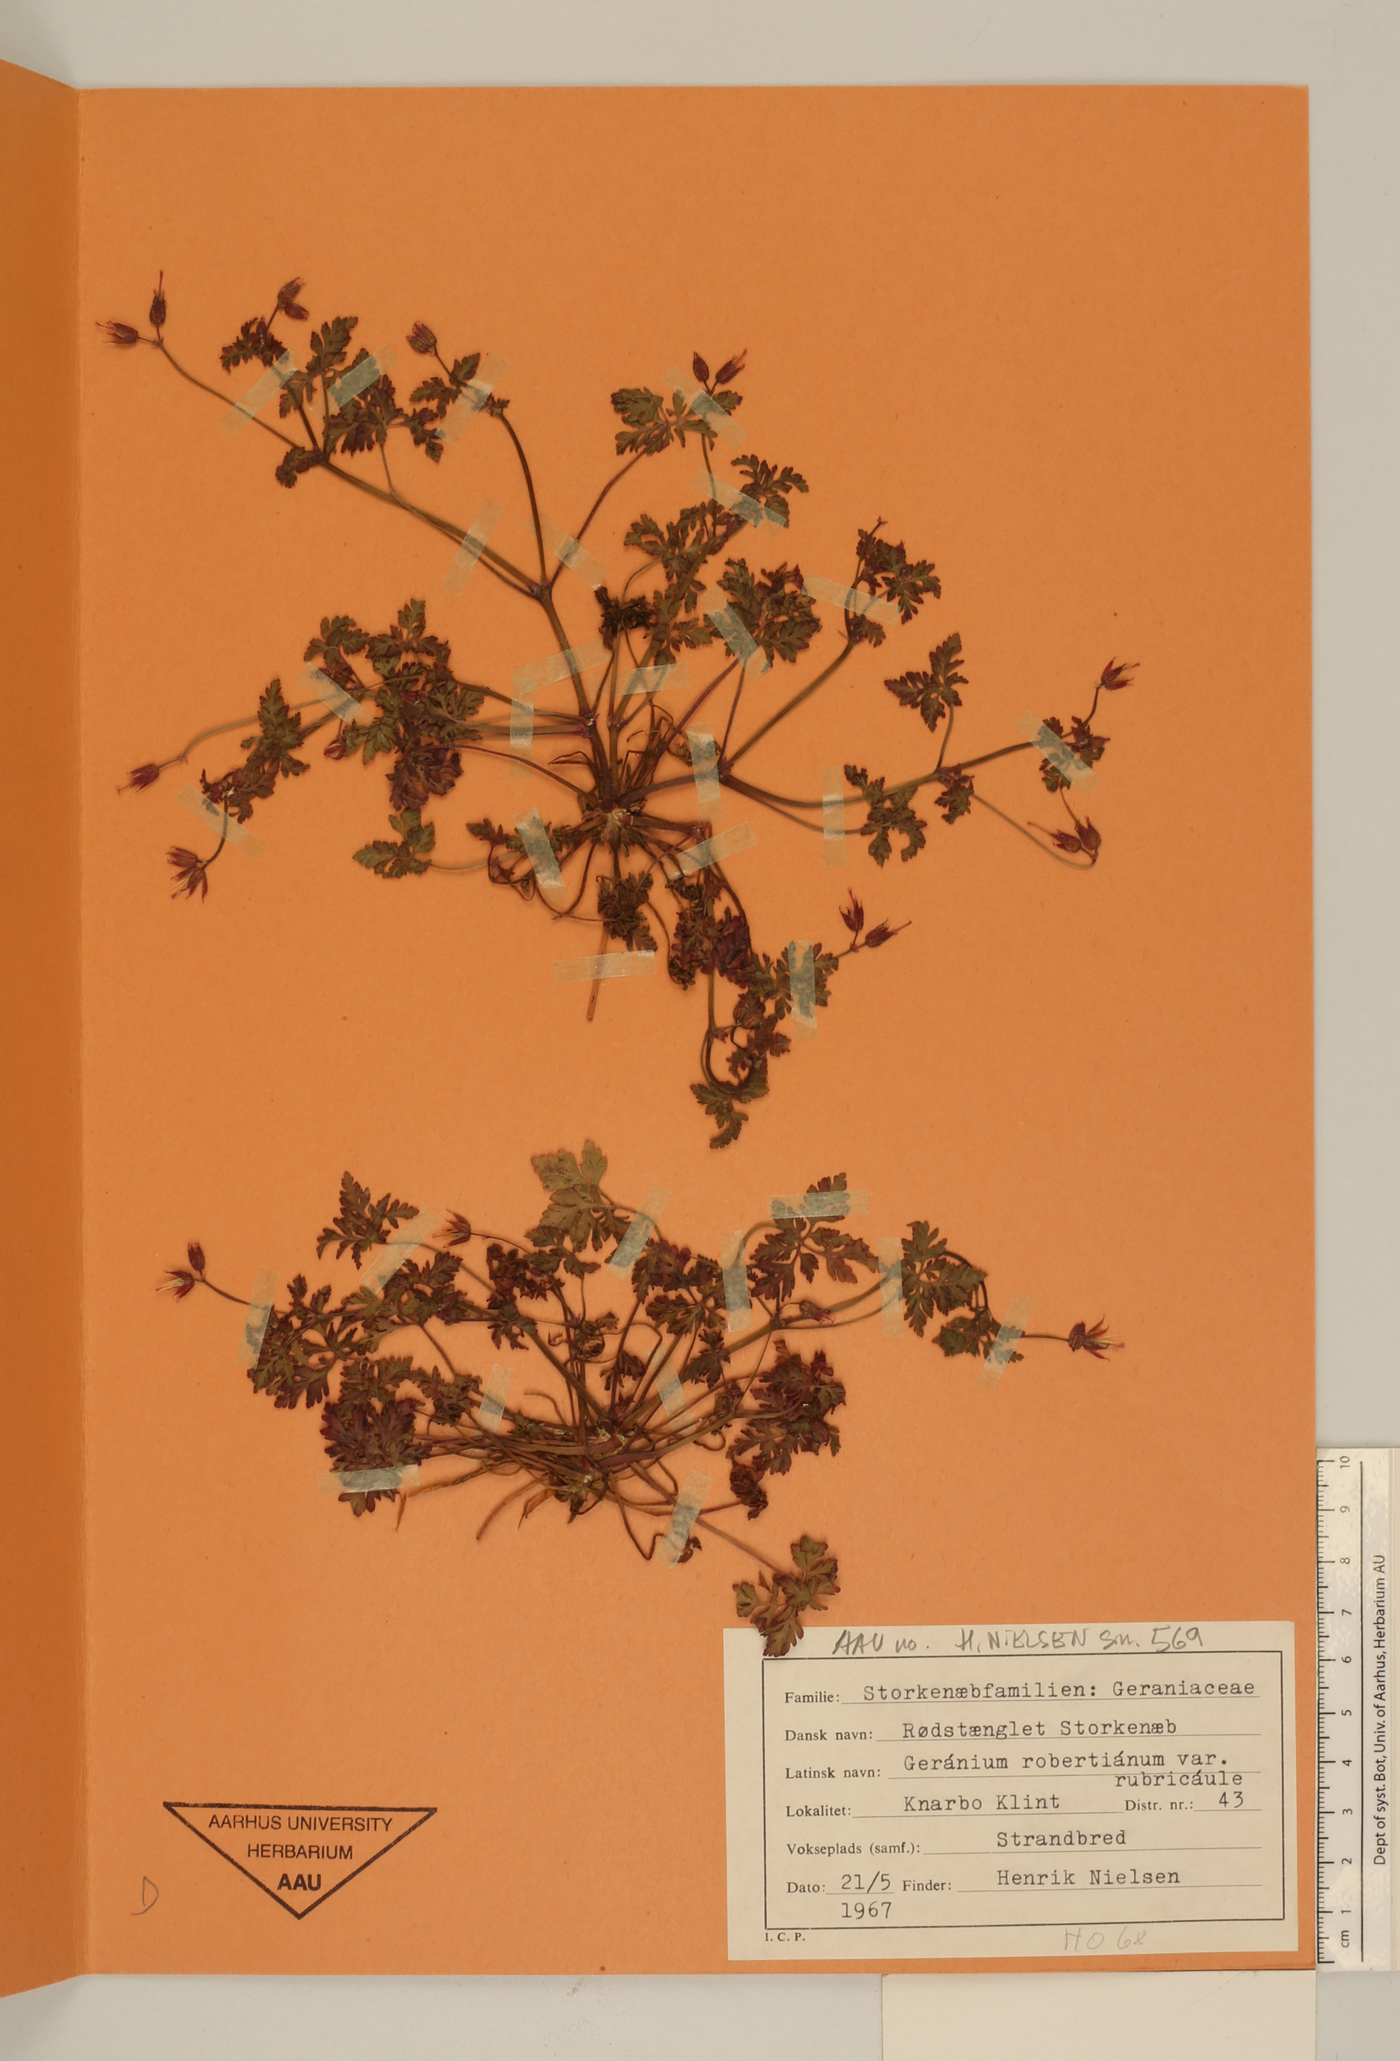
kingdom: Plantae
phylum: Tracheophyta
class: Magnoliopsida
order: Geraniales
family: Geraniaceae
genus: Geranium
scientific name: Geranium robertianum
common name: Herb-robert
